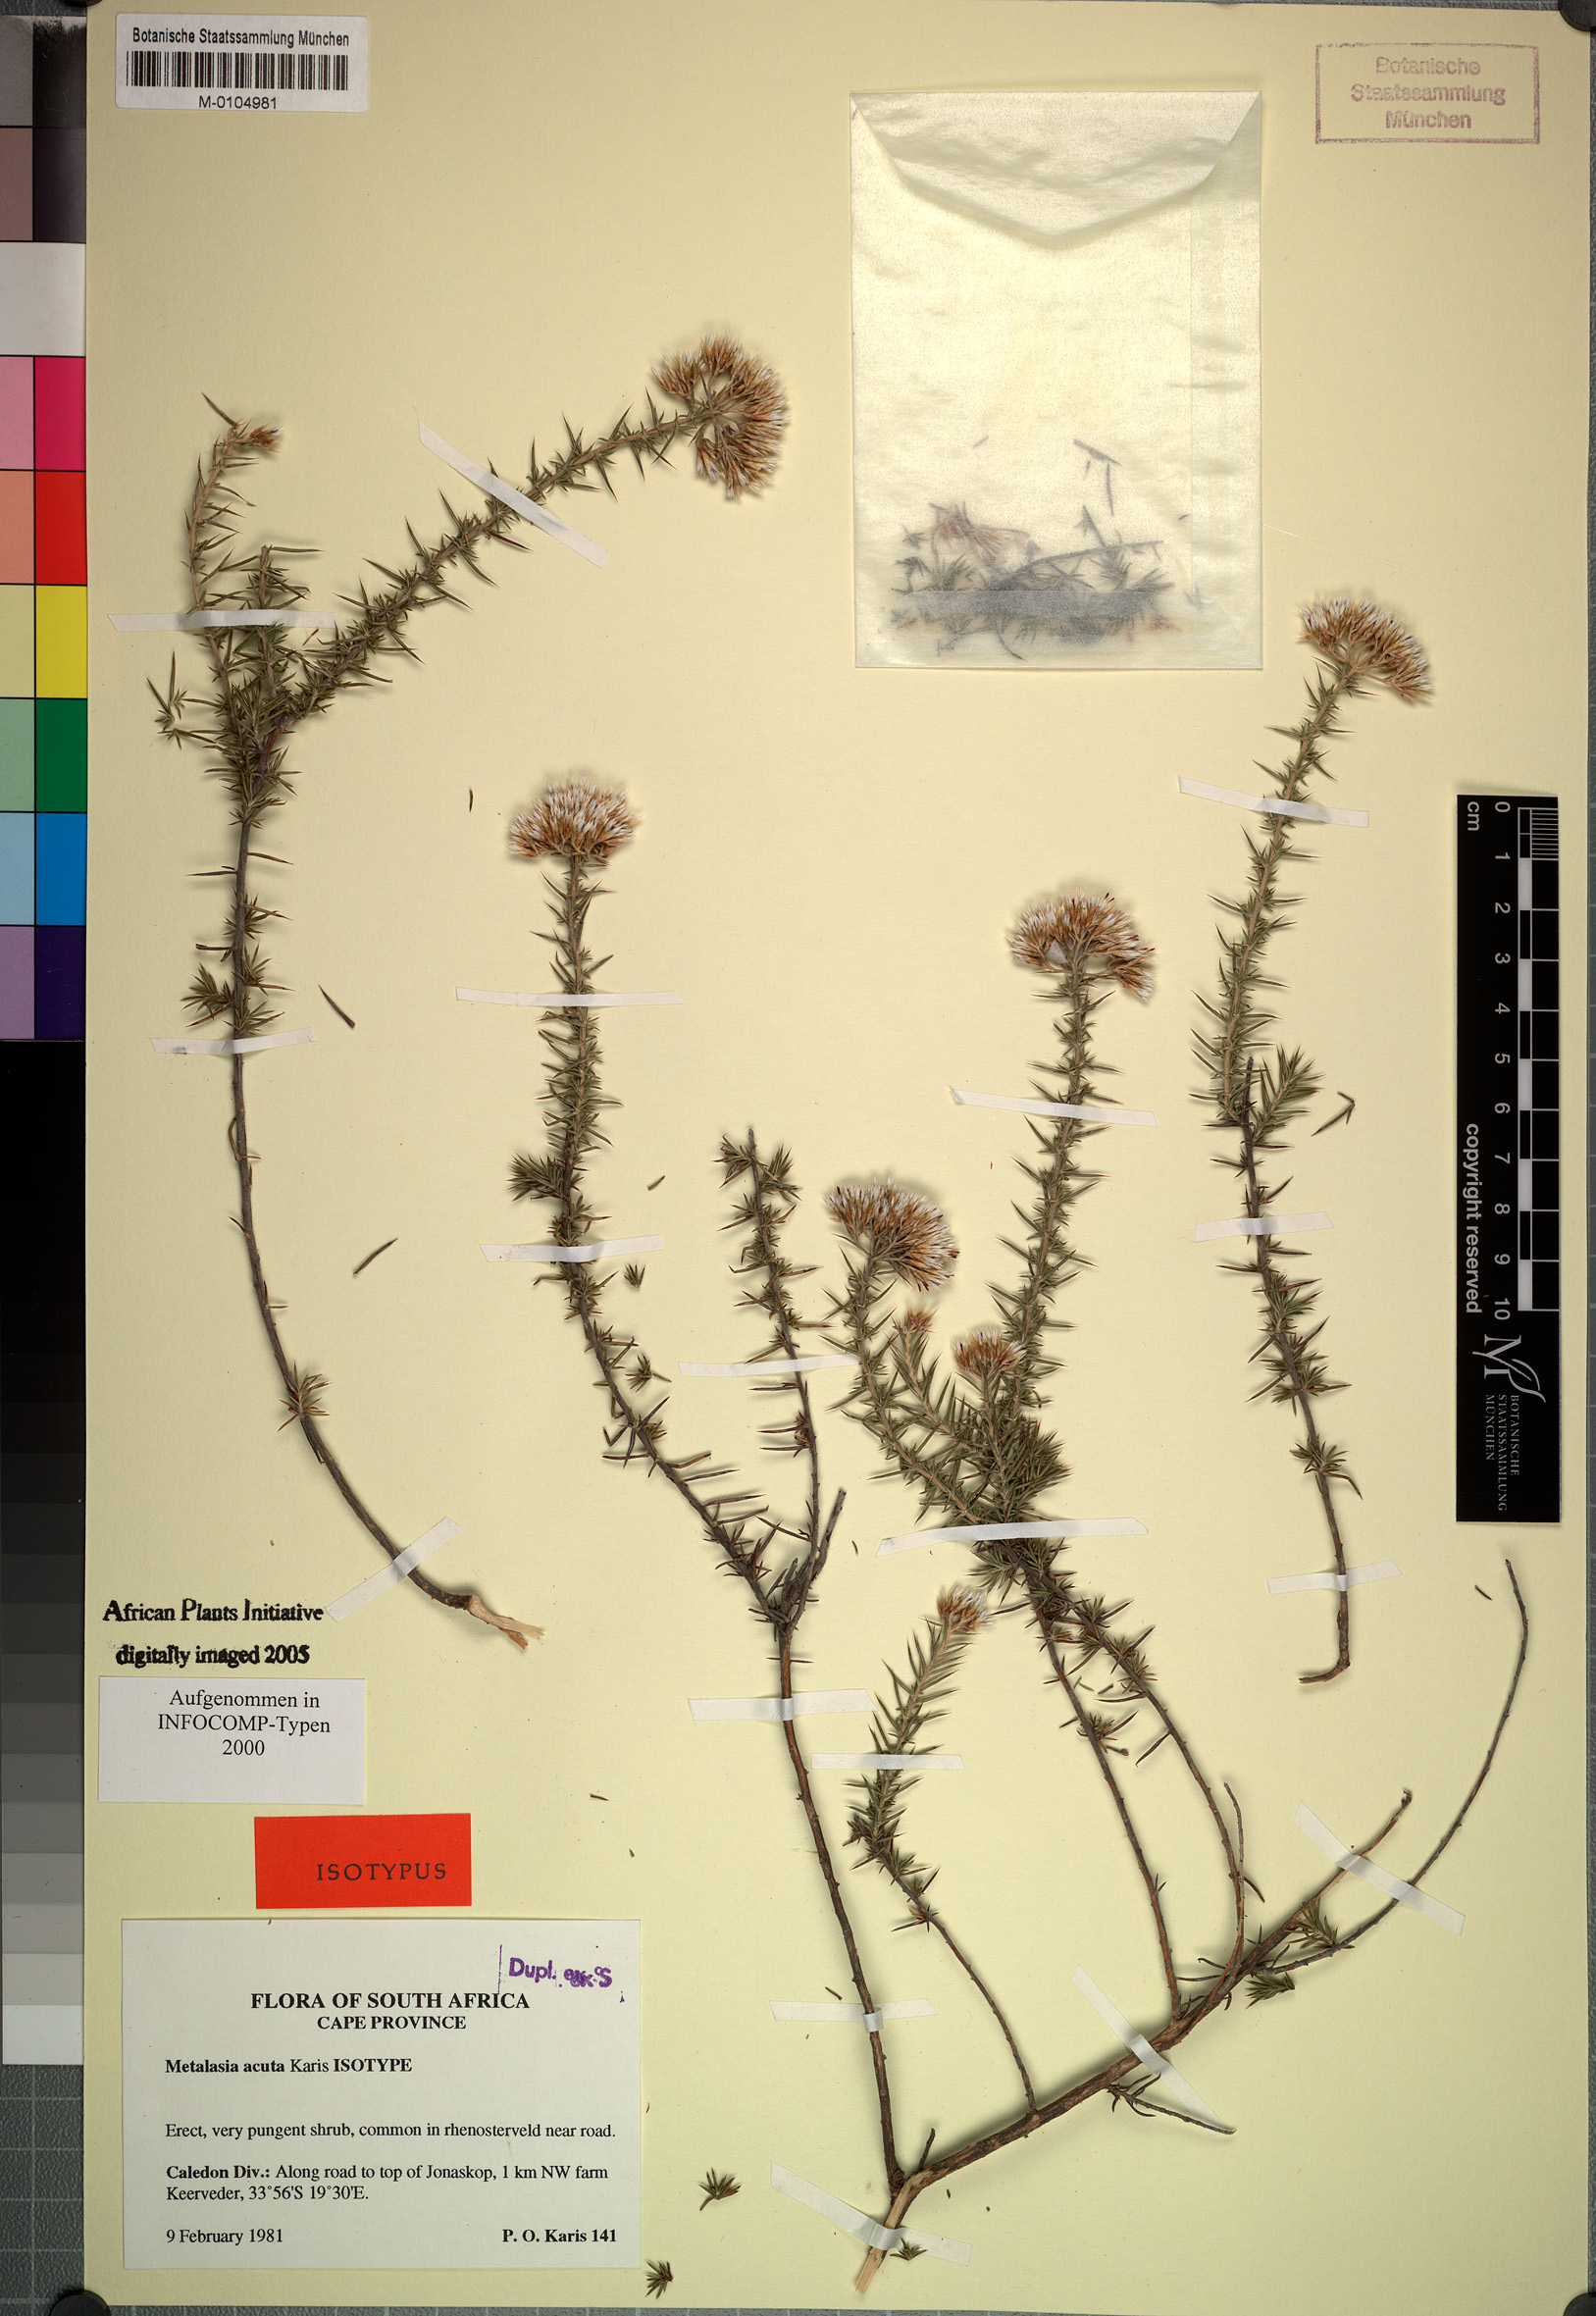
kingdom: Plantae
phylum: Tracheophyta
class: Magnoliopsida
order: Asterales
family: Asteraceae
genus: Metalasia
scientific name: Metalasia acuta
